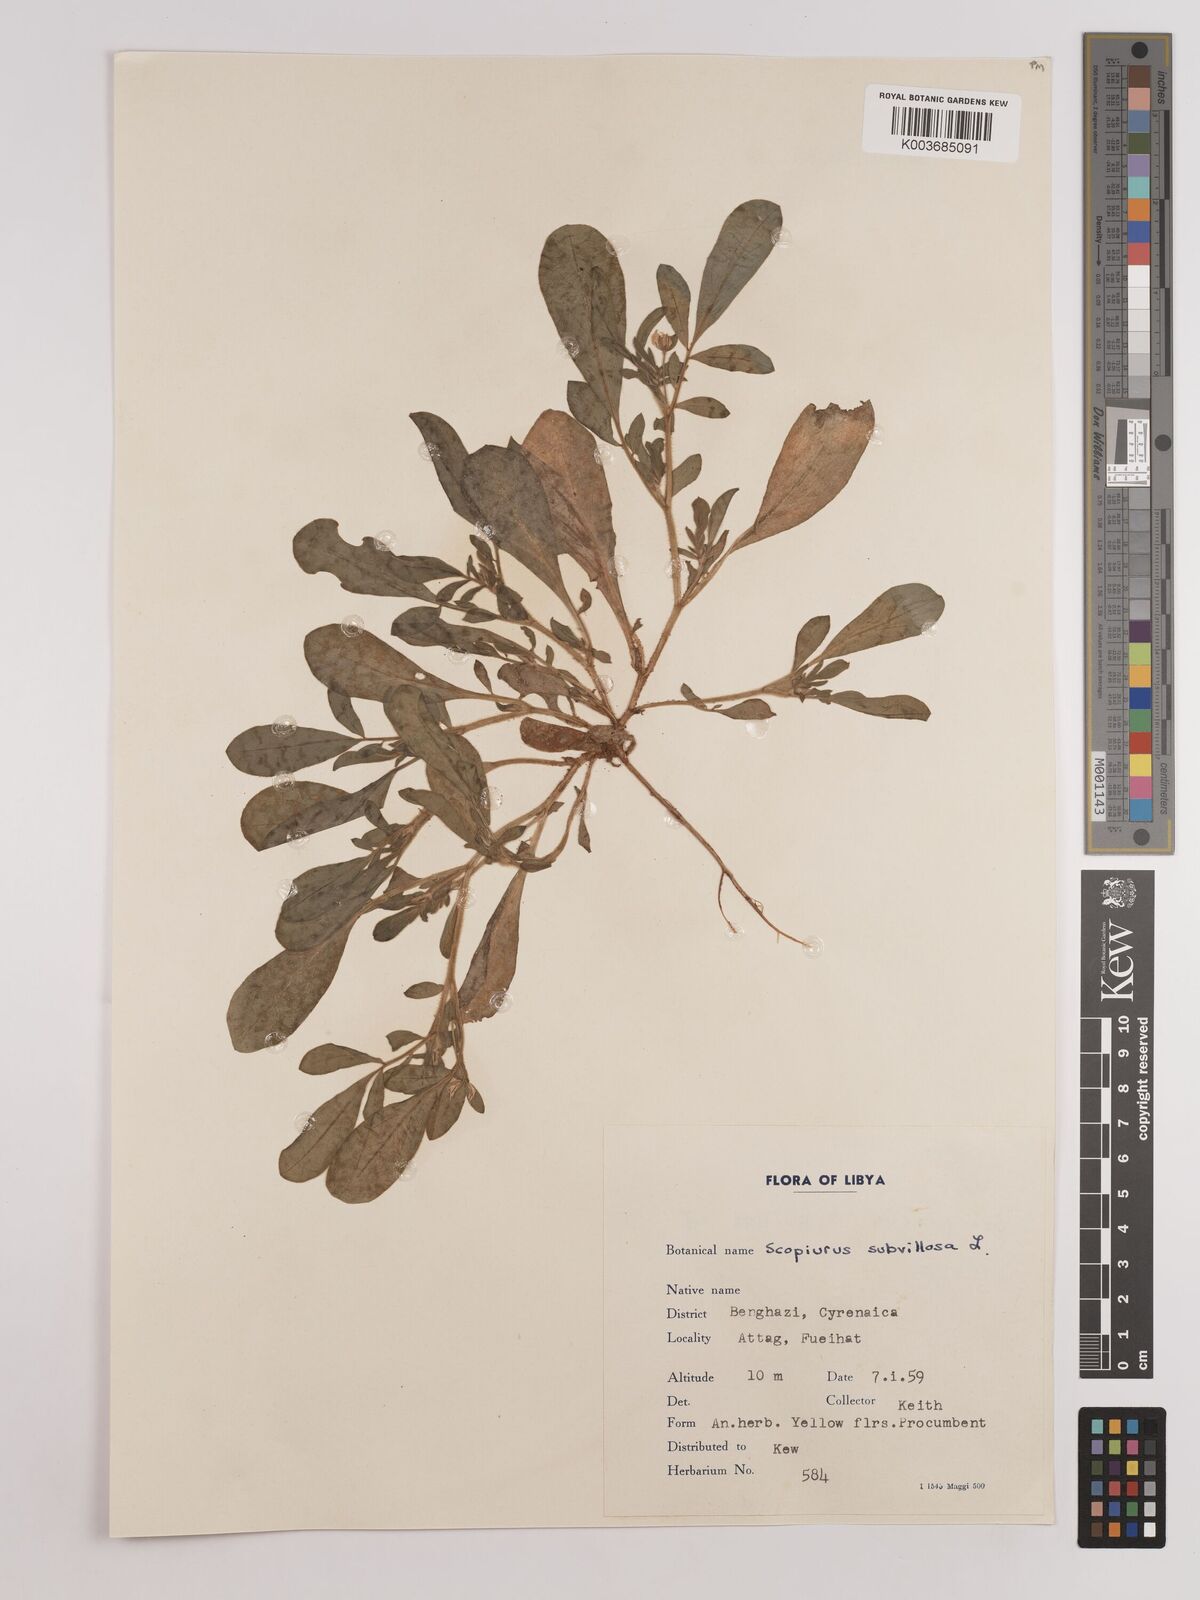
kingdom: Plantae
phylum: Tracheophyta
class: Magnoliopsida
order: Fabales
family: Fabaceae
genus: Scorpiurus
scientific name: Scorpiurus muricatus
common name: Caterpillar-plant
